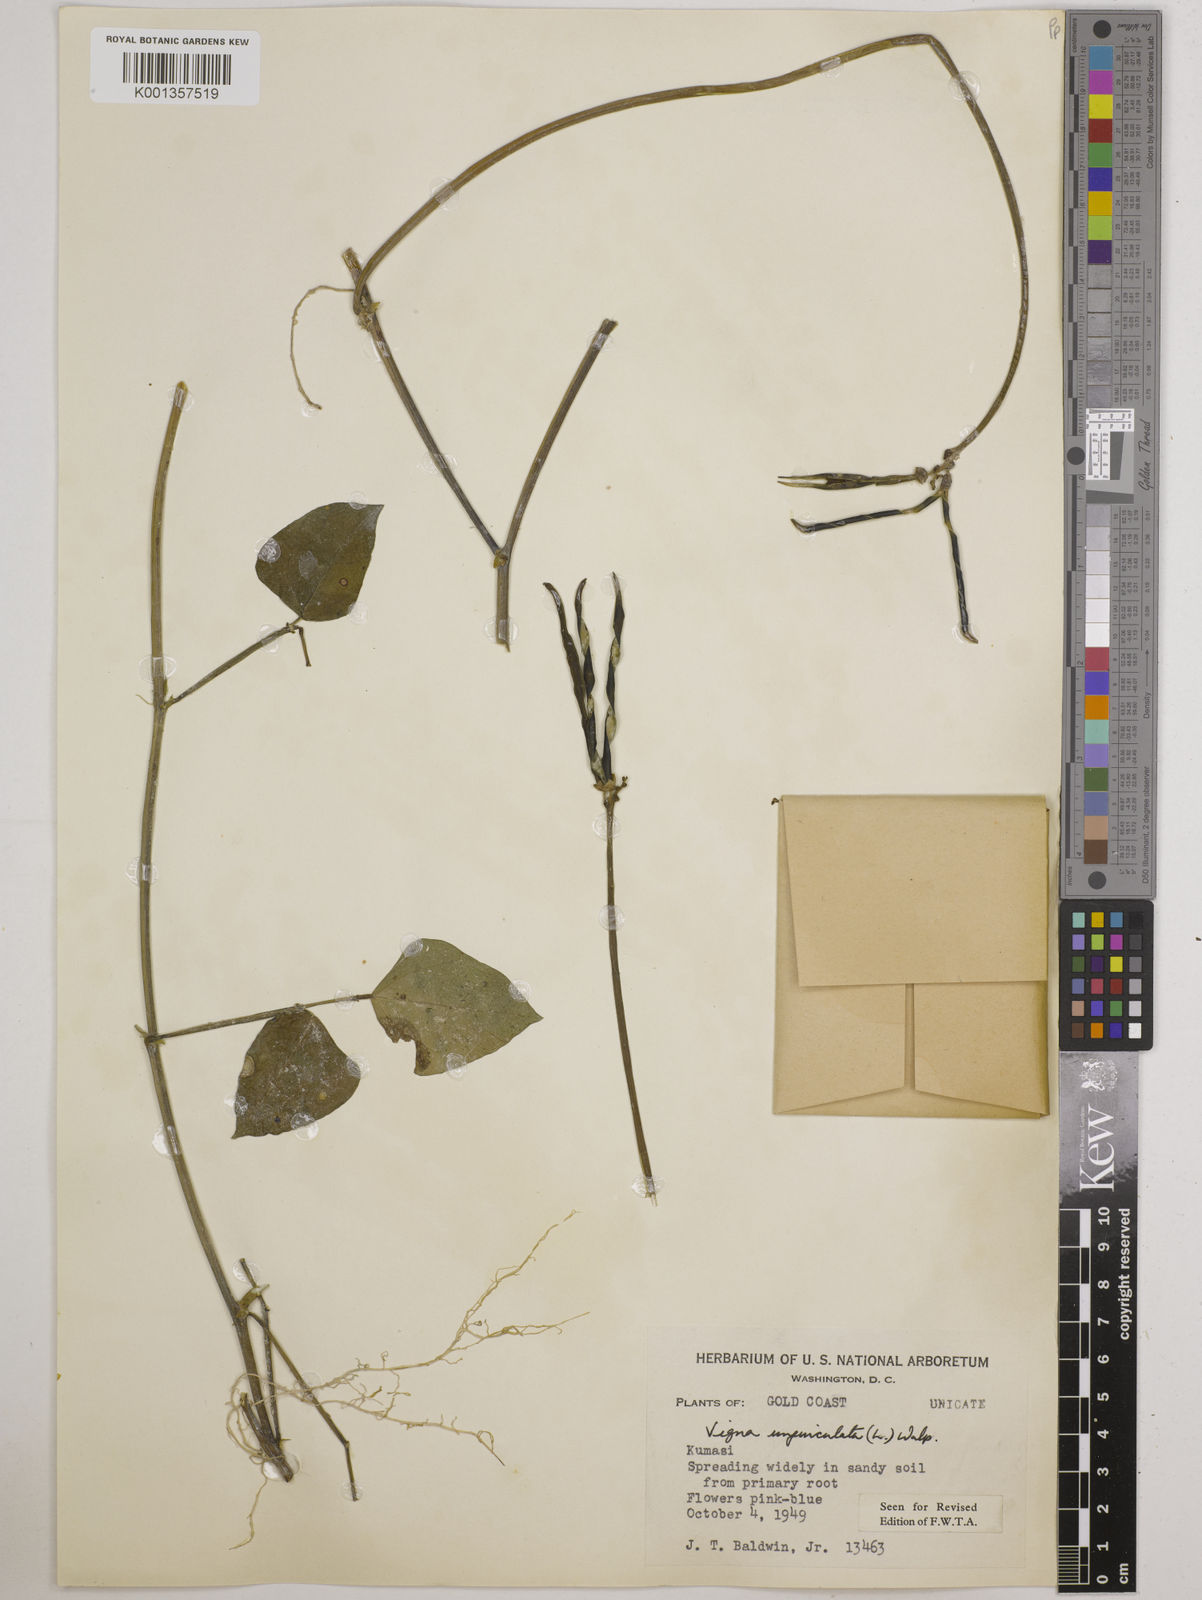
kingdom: Plantae
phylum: Tracheophyta
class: Magnoliopsida
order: Fabales
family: Fabaceae
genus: Vigna
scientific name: Vigna
